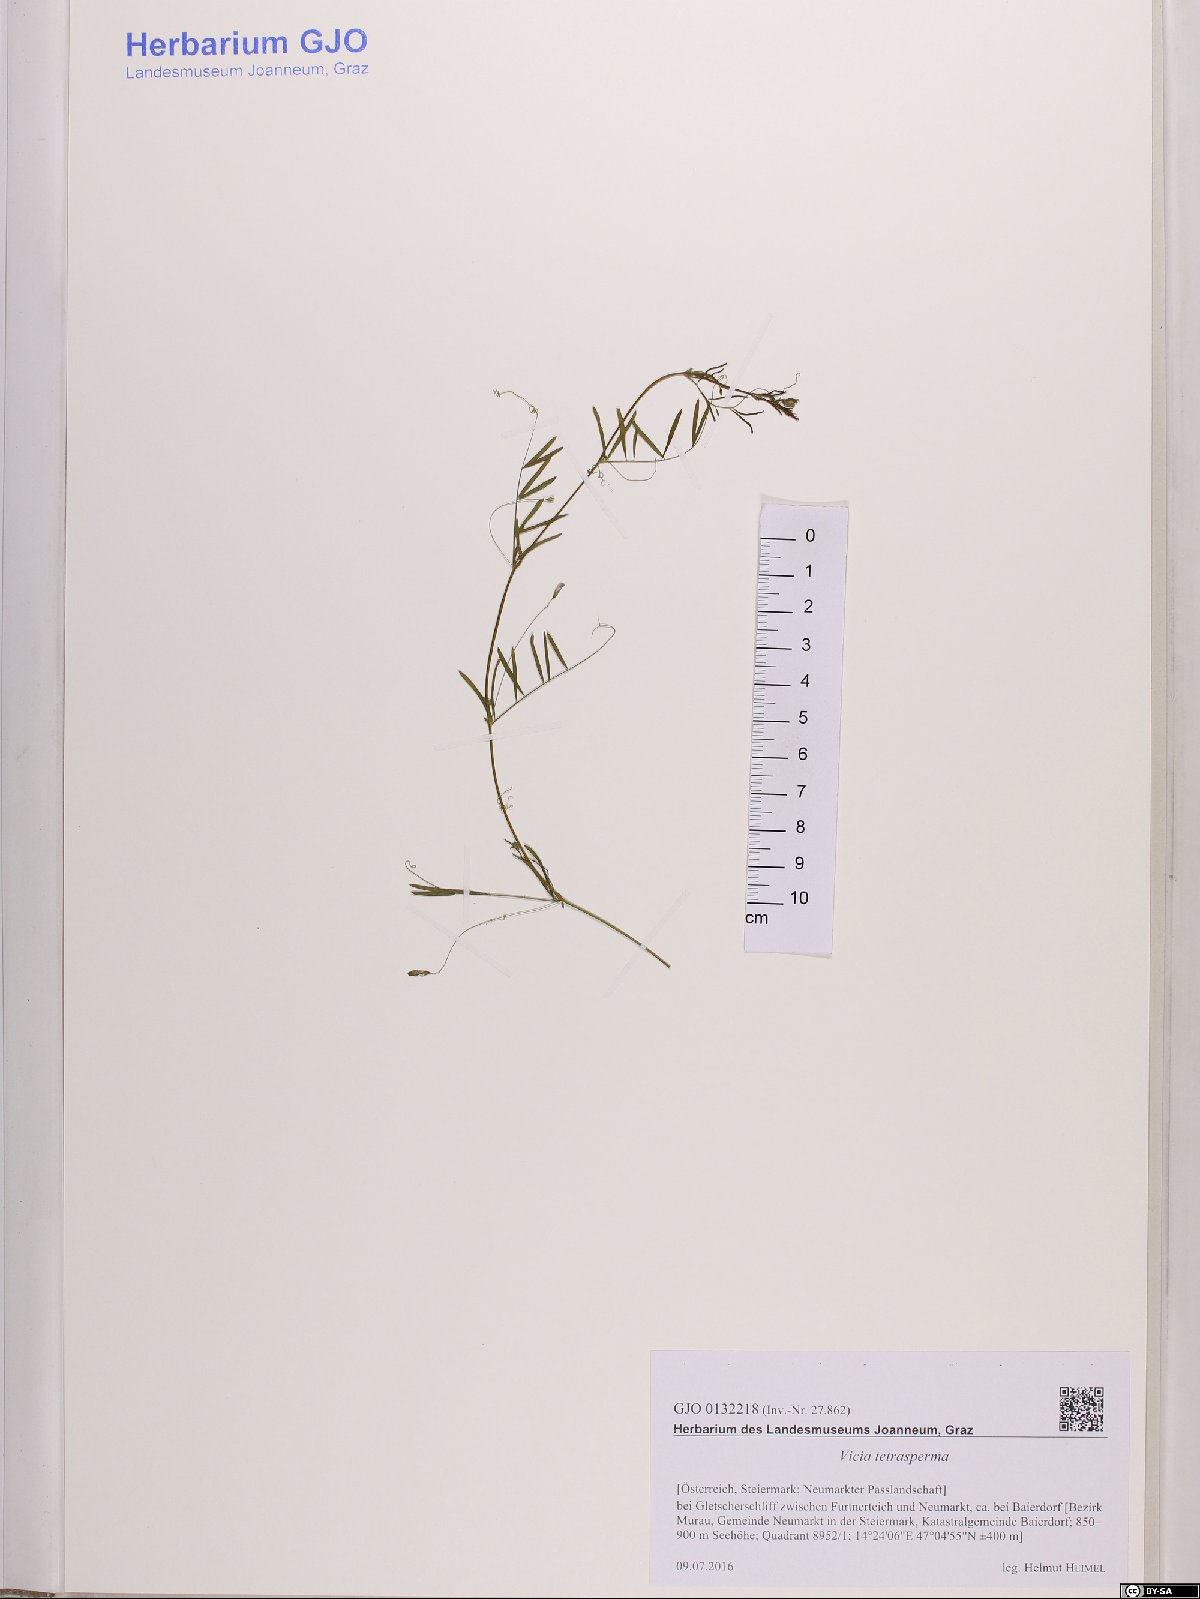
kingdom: Plantae
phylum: Tracheophyta
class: Magnoliopsida
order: Fabales
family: Fabaceae
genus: Vicia
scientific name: Vicia tetrasperma
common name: Smooth tare
